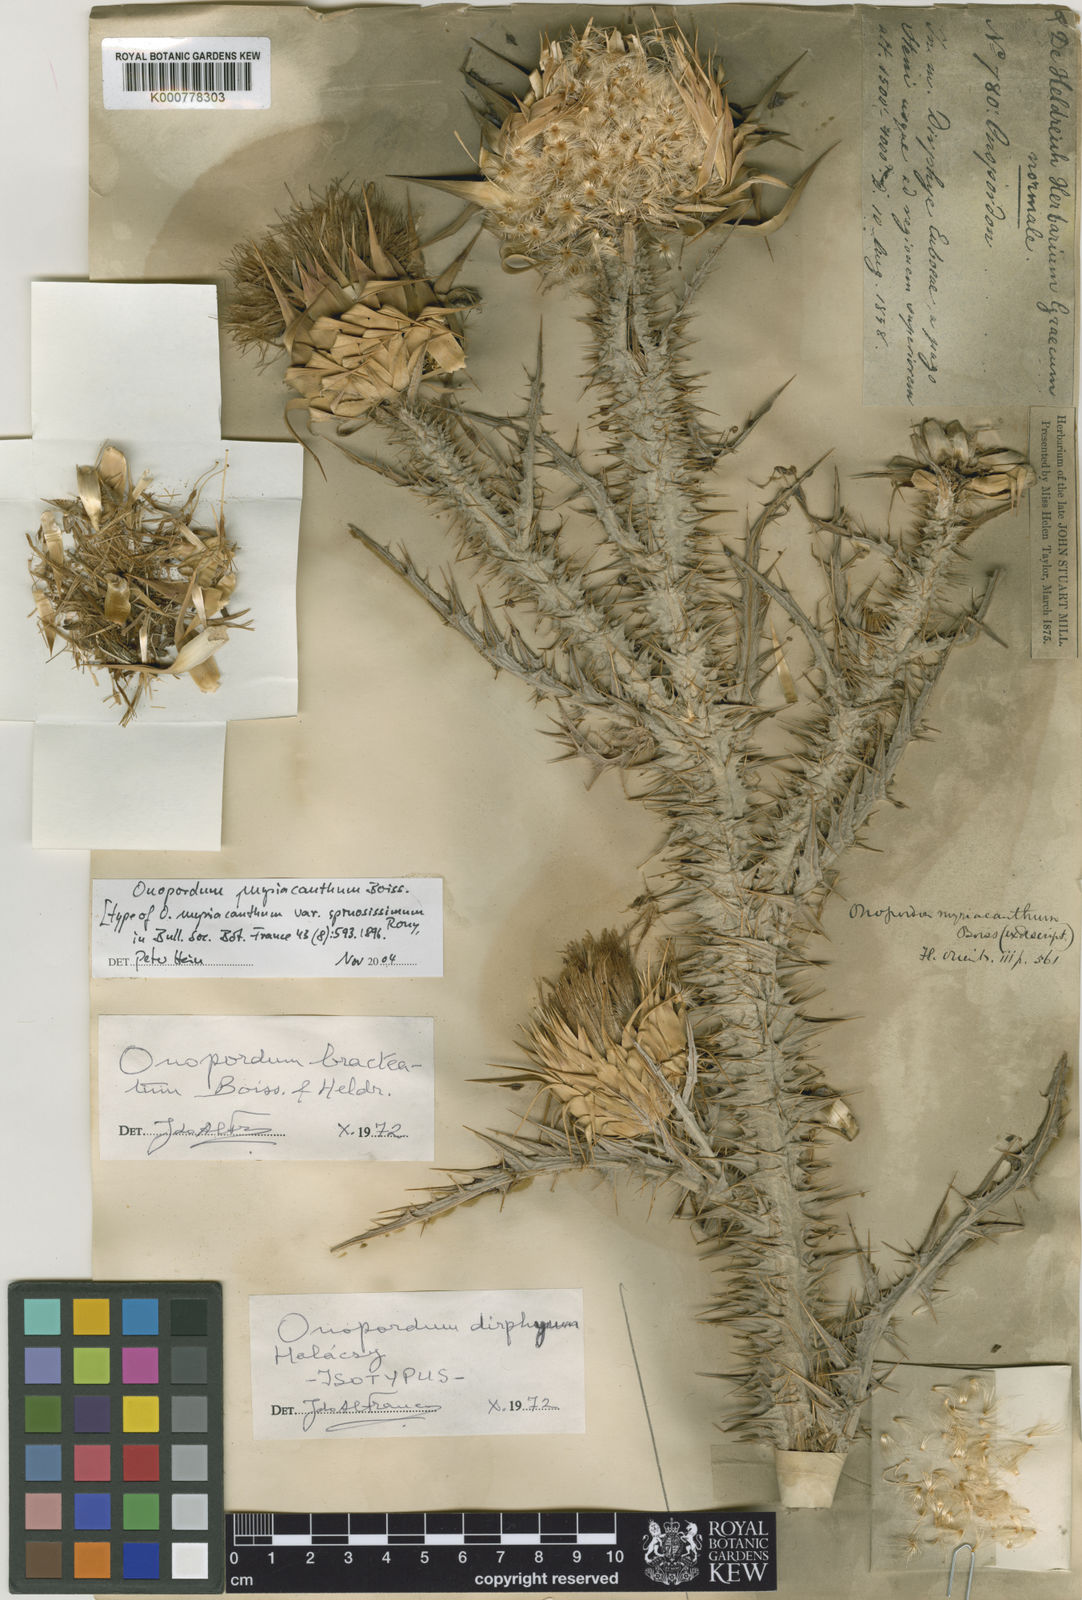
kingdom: Plantae
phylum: Tracheophyta
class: Magnoliopsida
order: Asterales
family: Asteraceae
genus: Onopordum
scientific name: Onopordum myriacanthum
